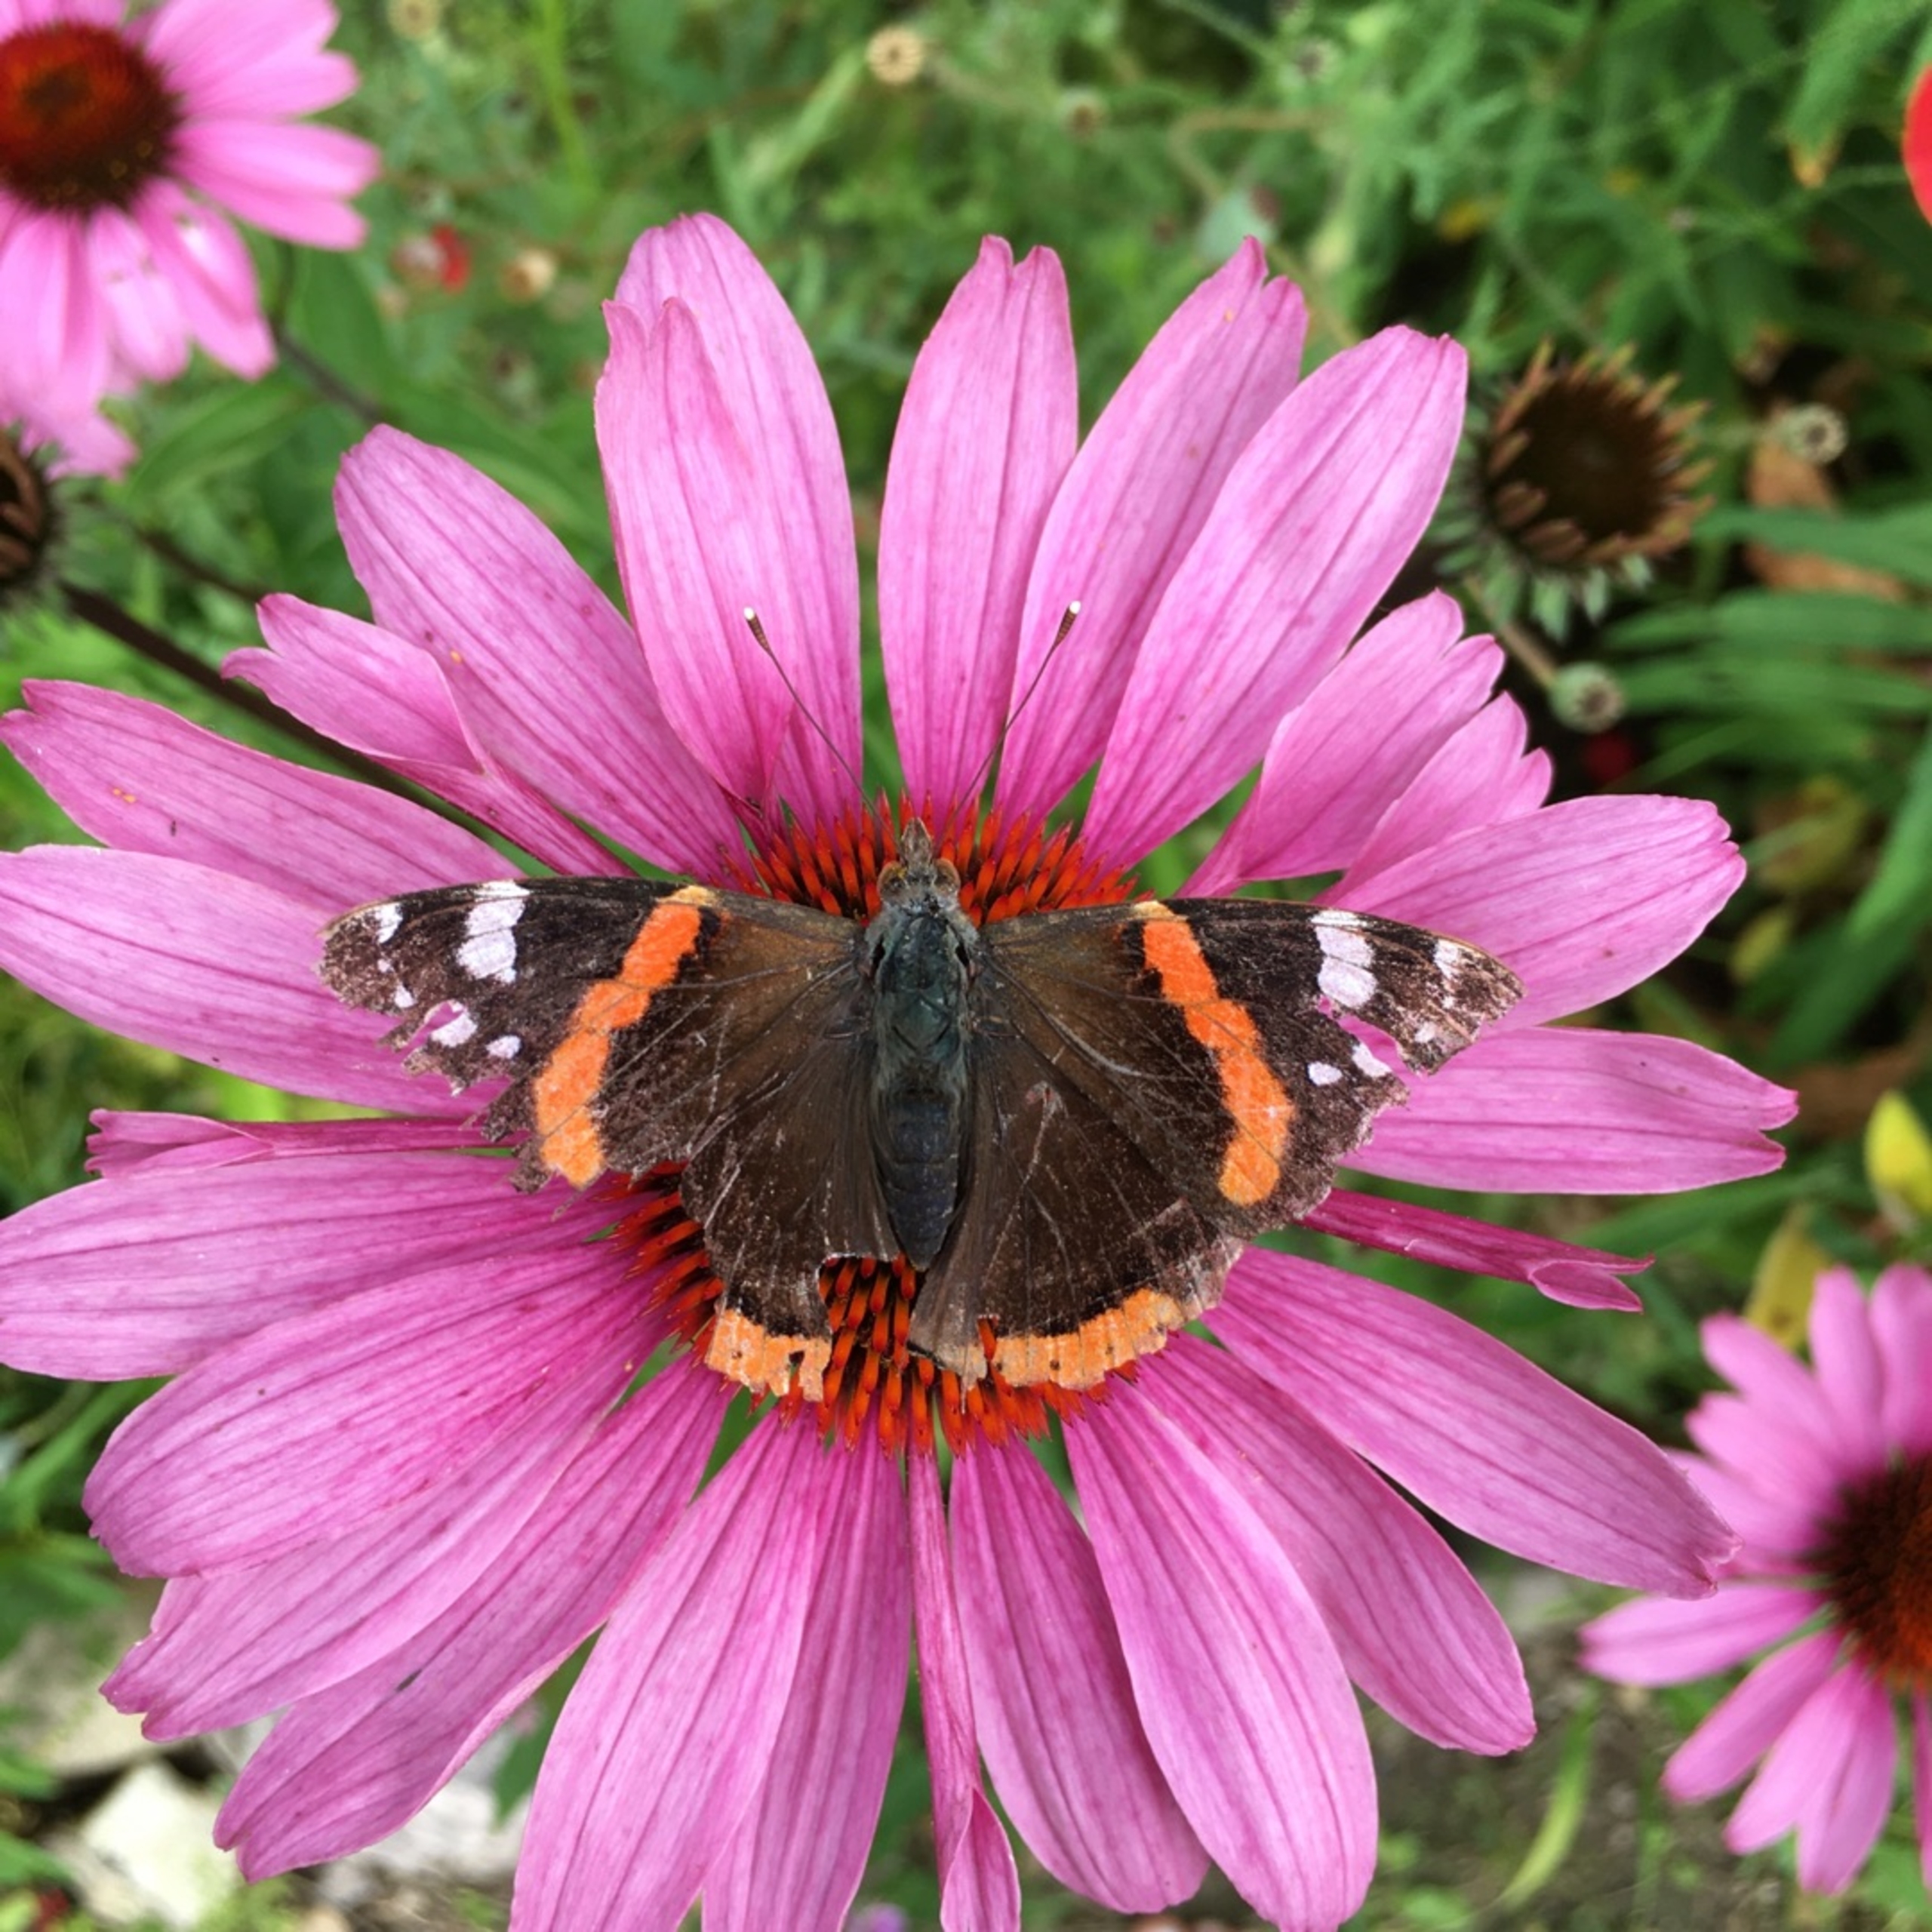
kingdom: Animalia
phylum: Arthropoda
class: Insecta
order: Lepidoptera
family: Nymphalidae
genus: Vanessa
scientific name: Vanessa atalanta
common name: Admiral
